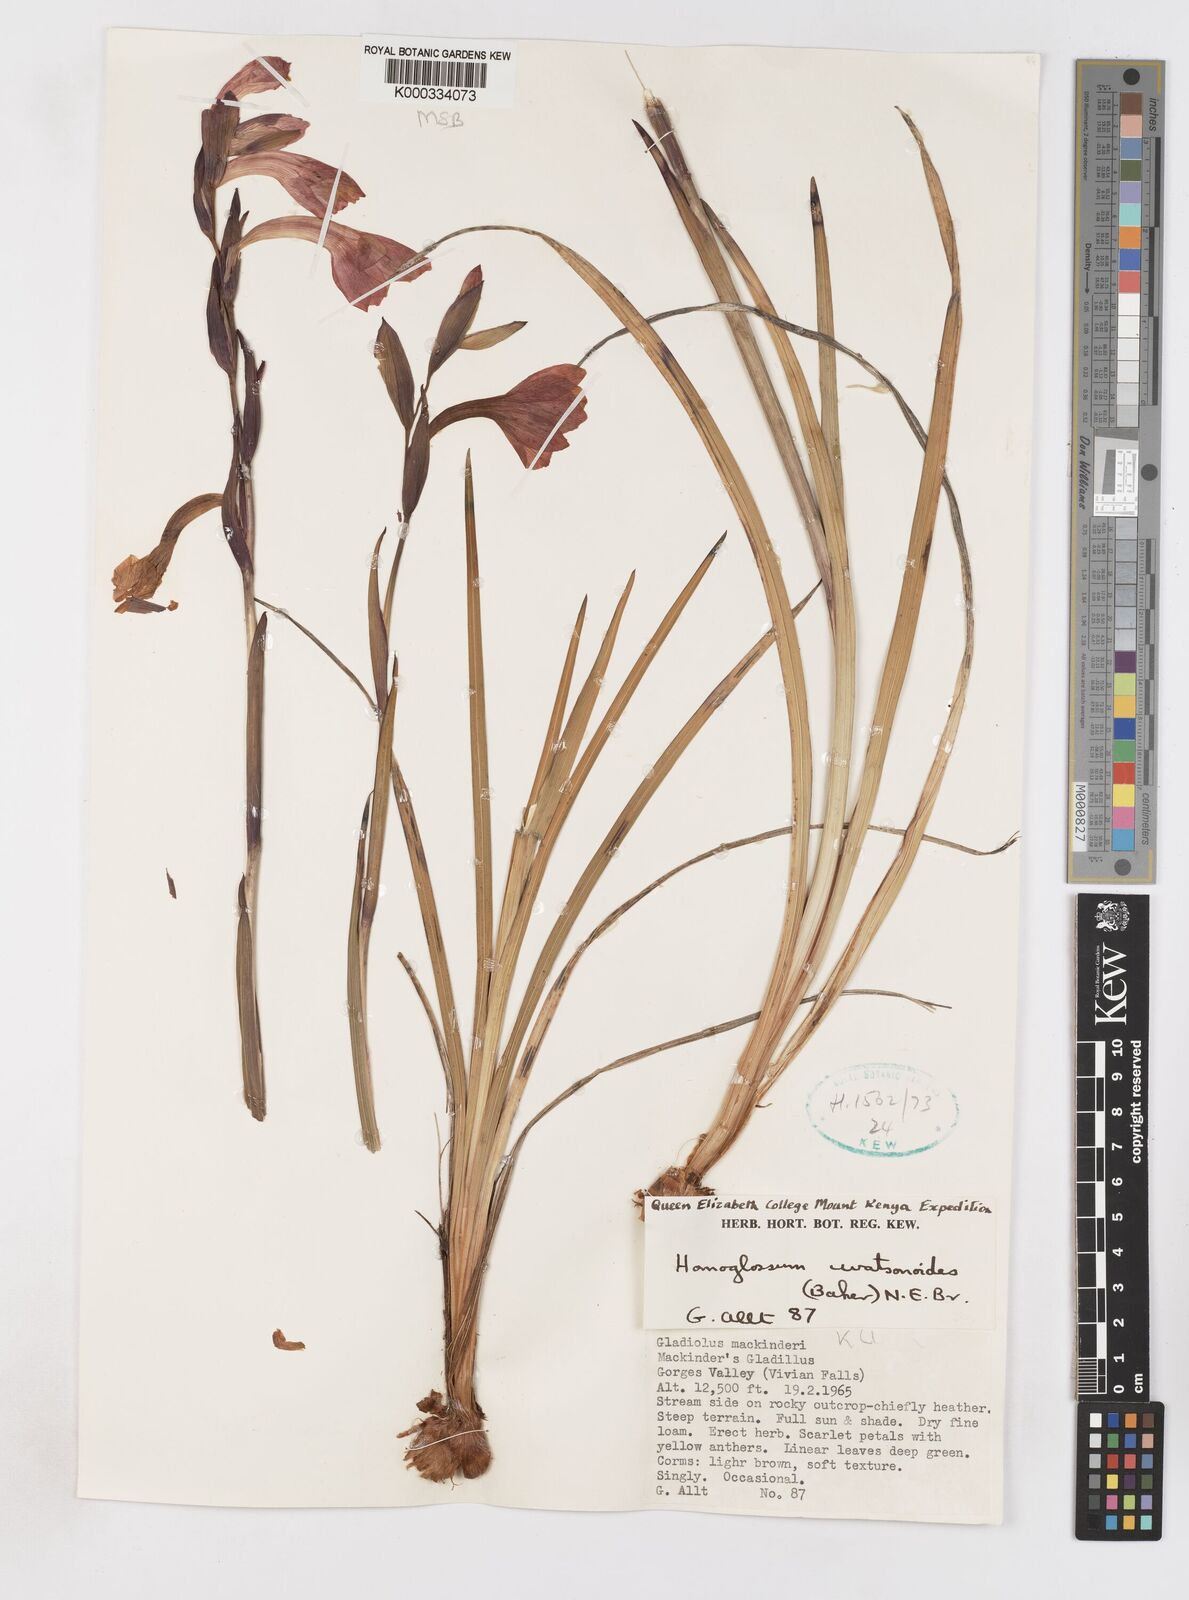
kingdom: Plantae
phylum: Tracheophyta
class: Liliopsida
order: Asparagales
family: Iridaceae
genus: Gladiolus
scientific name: Gladiolus watsonioides
